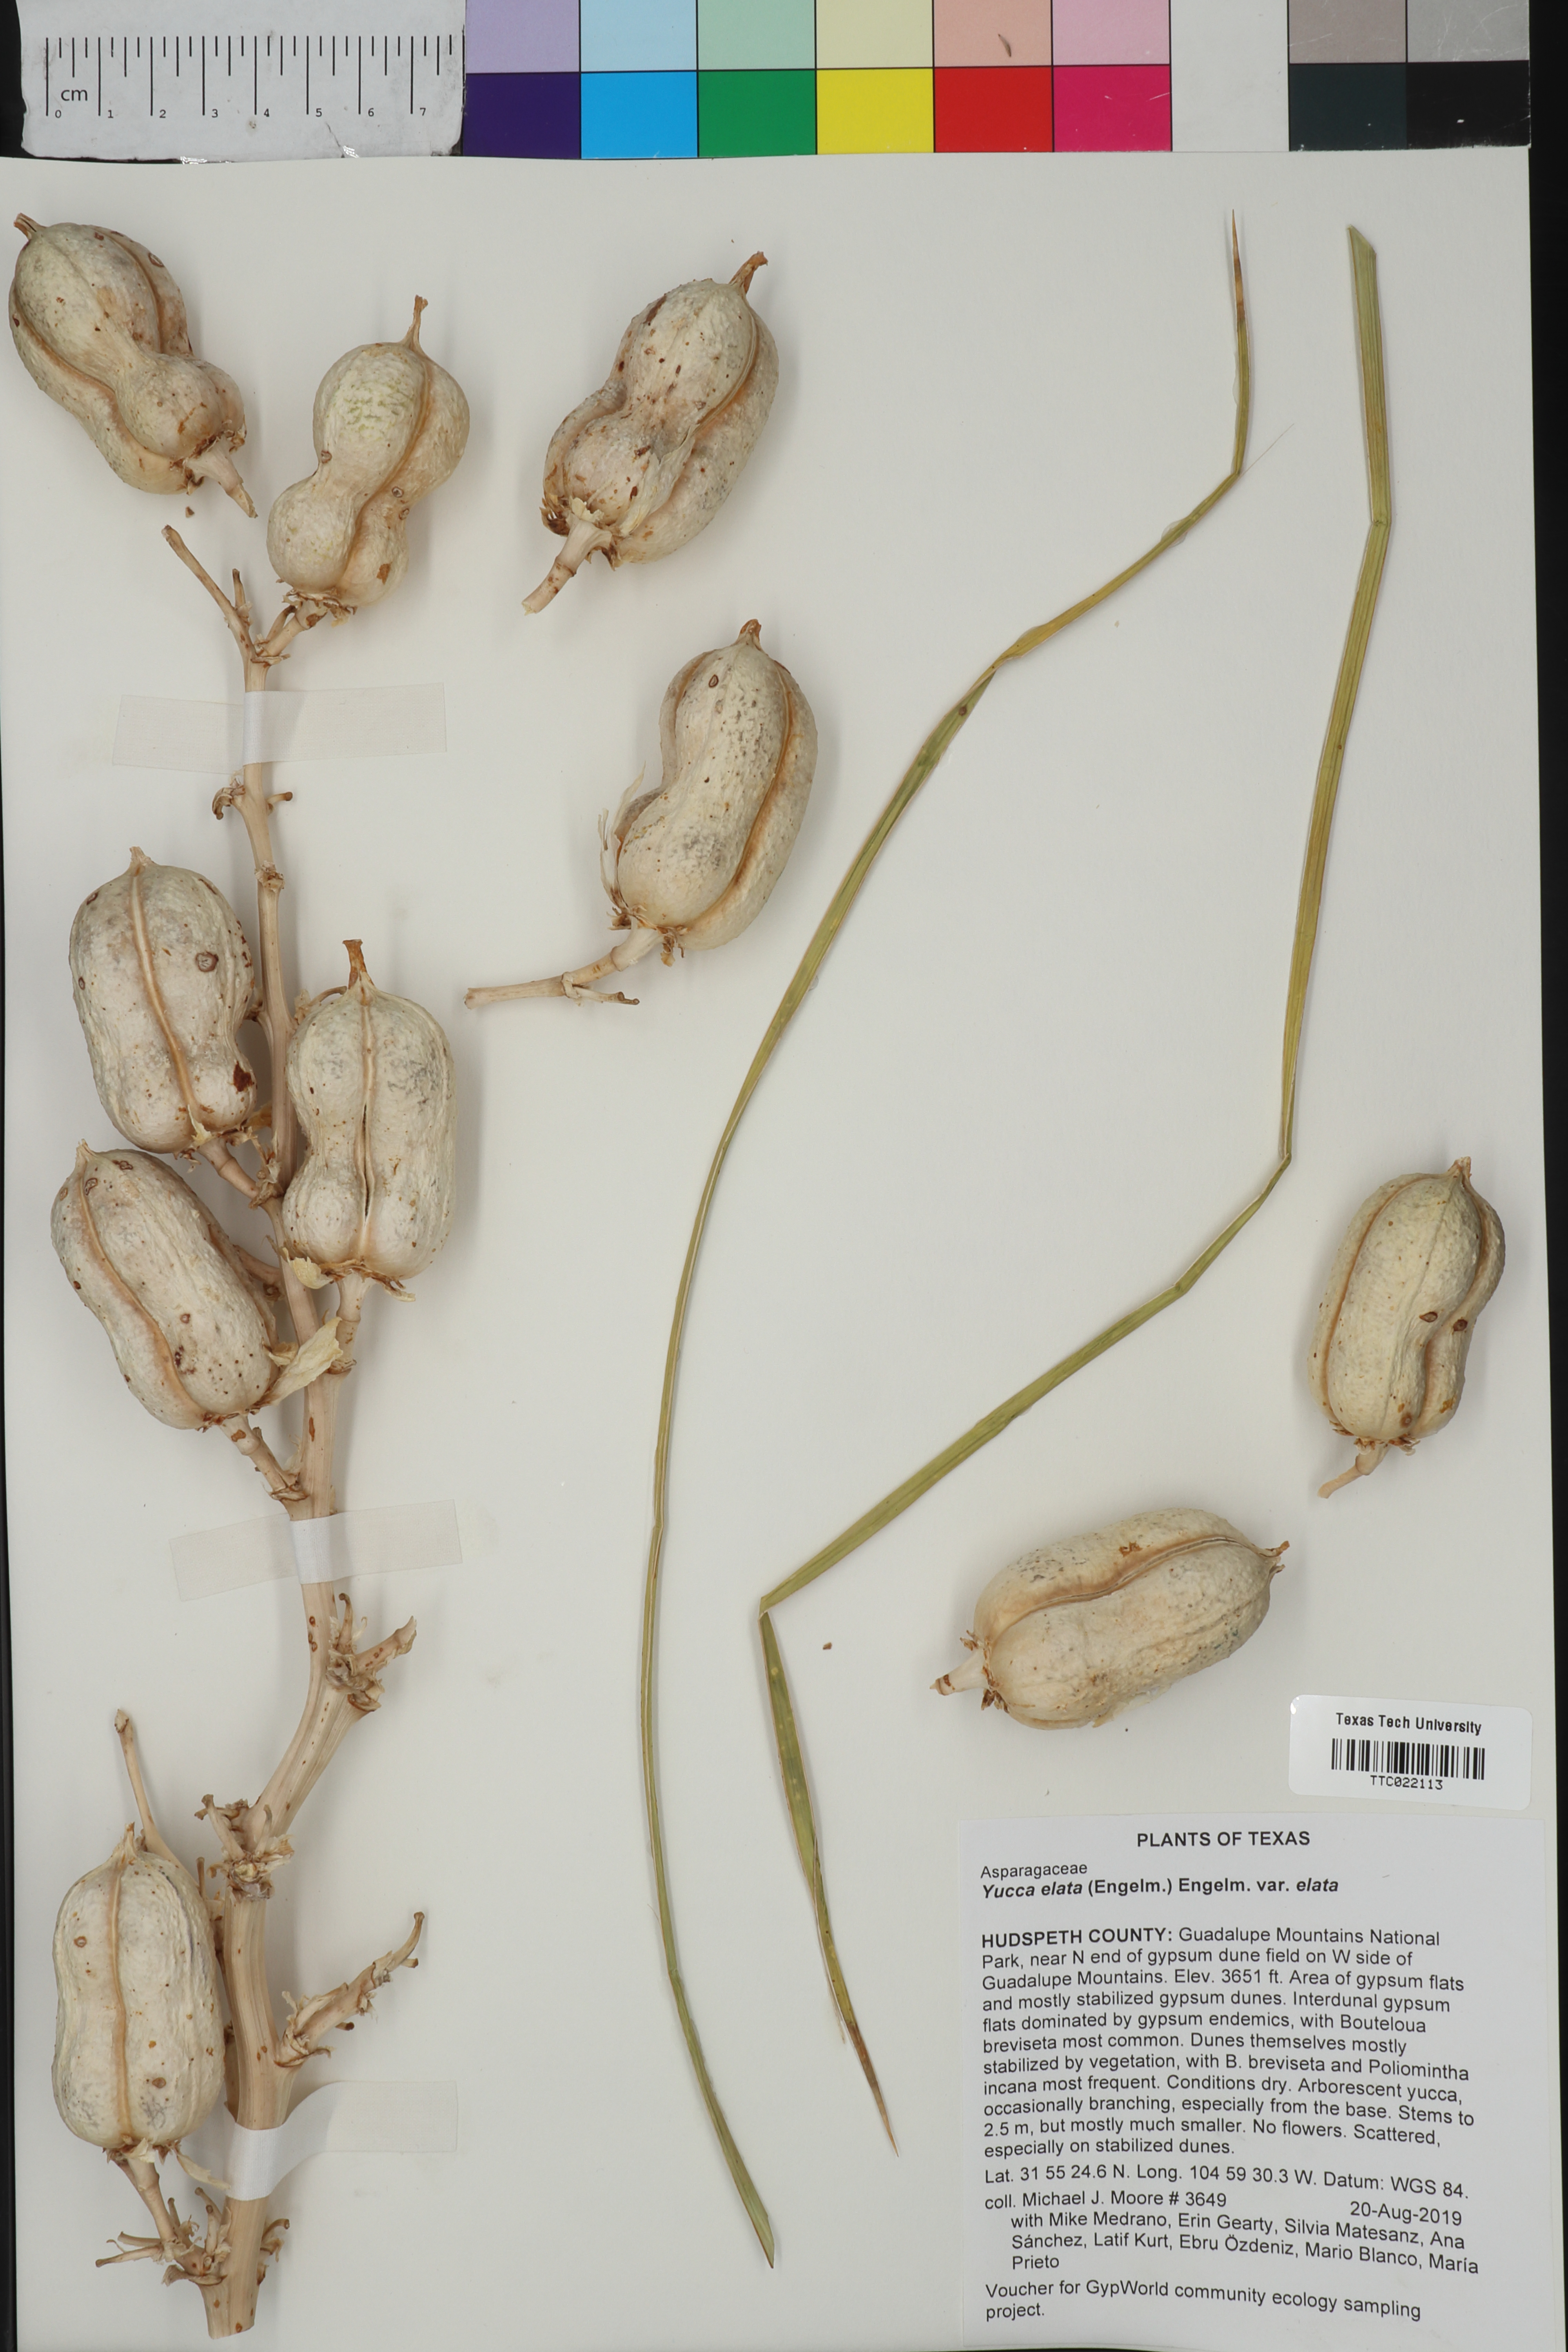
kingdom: Plantae
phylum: Tracheophyta
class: Liliopsida
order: Asparagales
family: Asparagaceae
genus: Yucca
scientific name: Yucca elata
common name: Palmella
